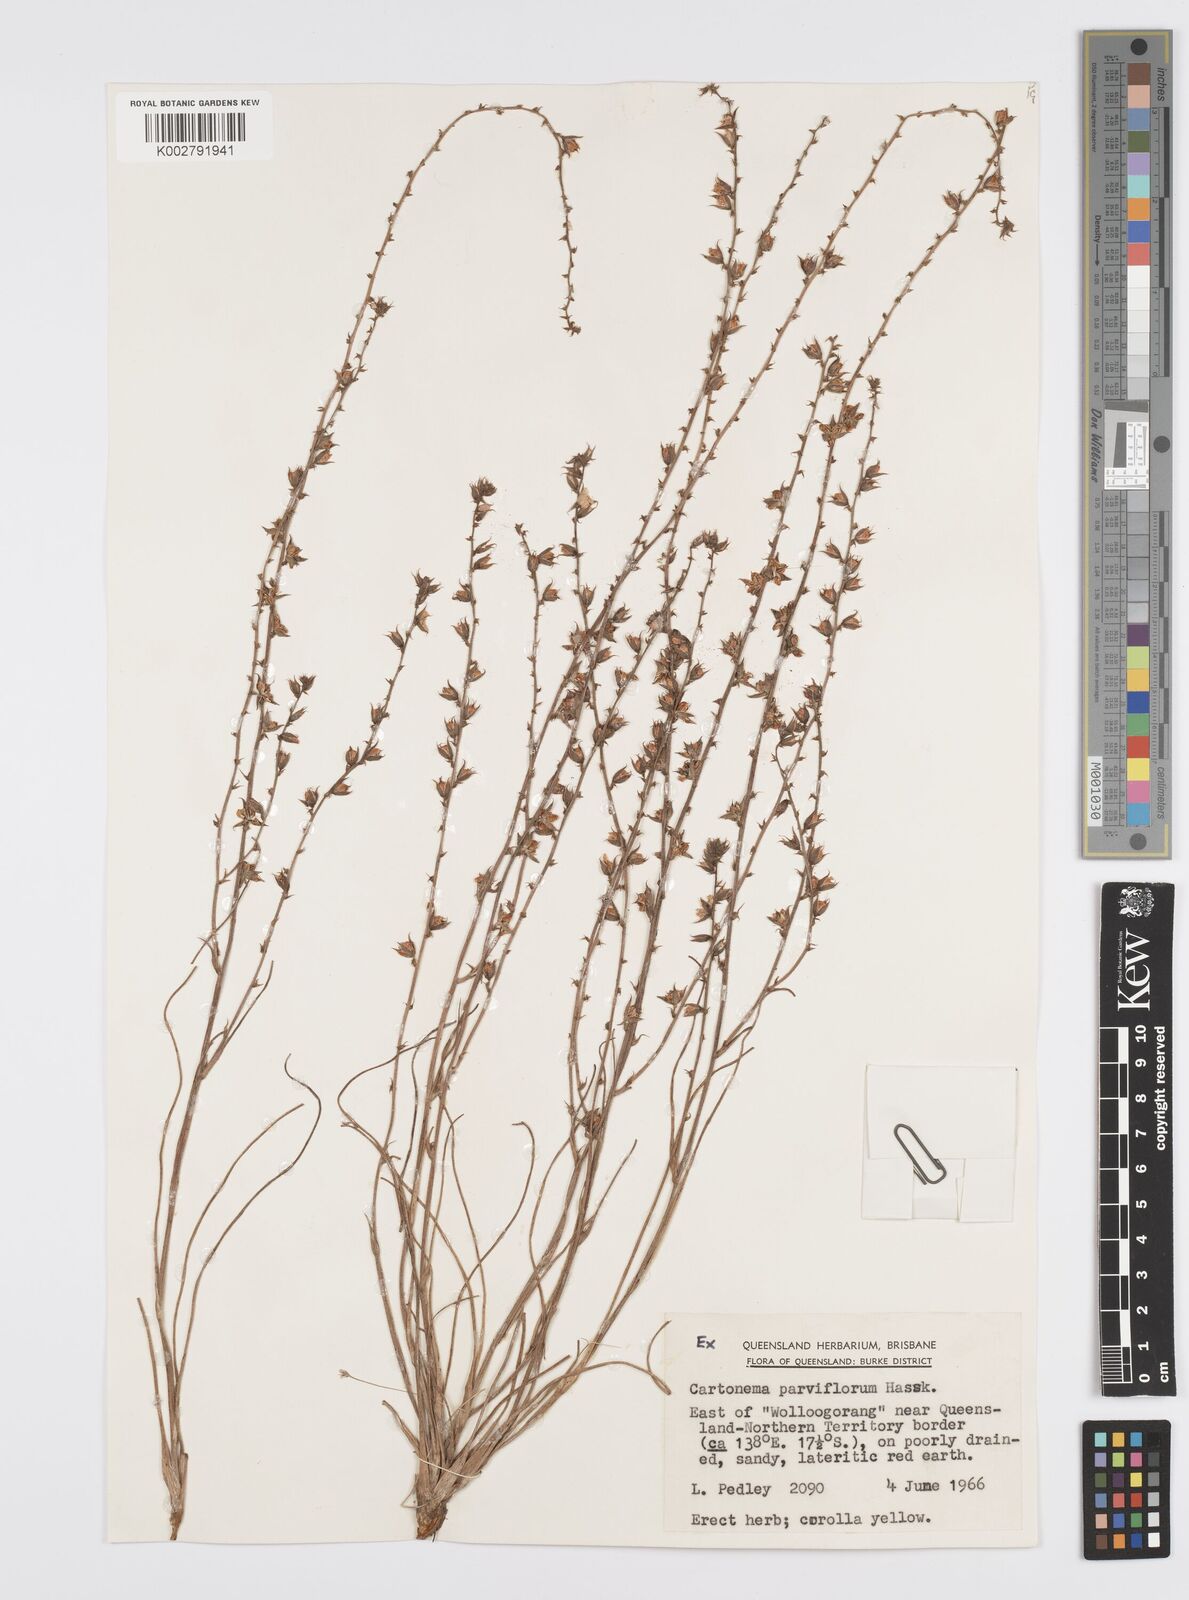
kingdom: Plantae
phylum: Tracheophyta
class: Liliopsida
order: Commelinales
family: Commelinaceae
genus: Cartonema
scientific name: Cartonema parviflorum
